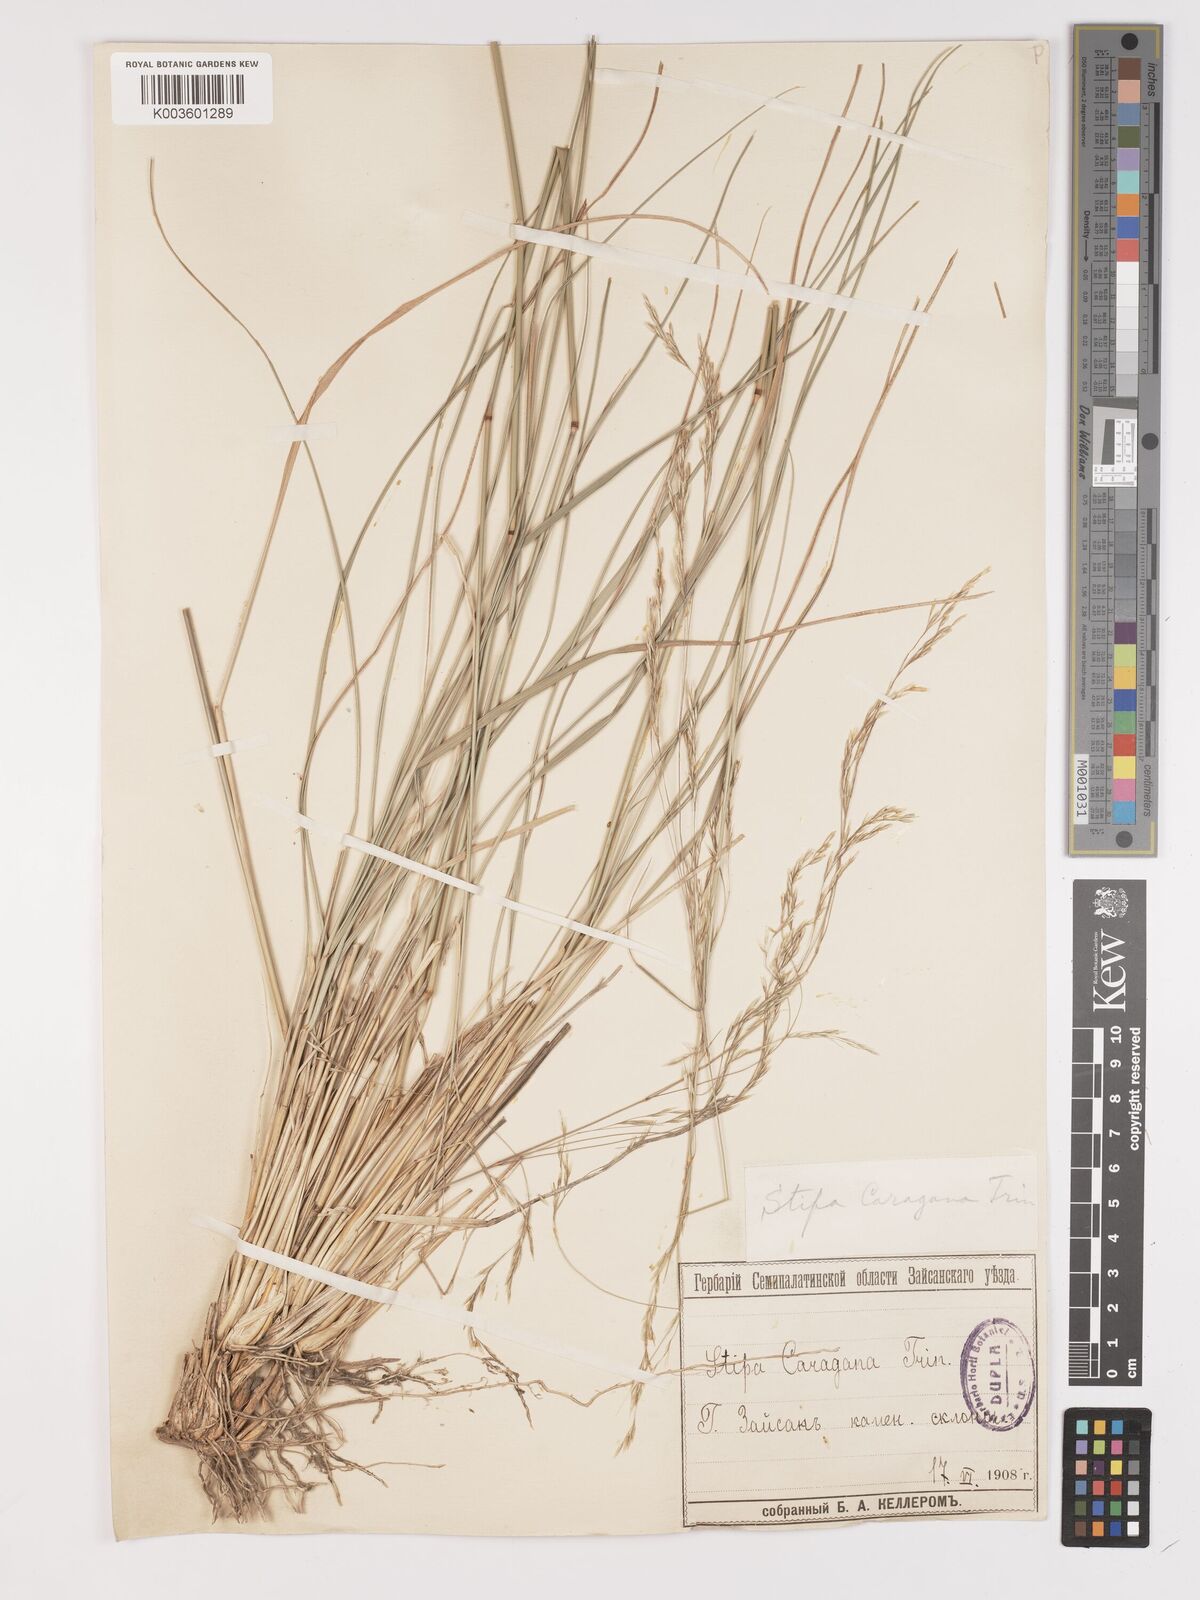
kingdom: Plantae
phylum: Tracheophyta
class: Liliopsida
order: Poales
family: Poaceae
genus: Stipa
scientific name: Stipa conferta
